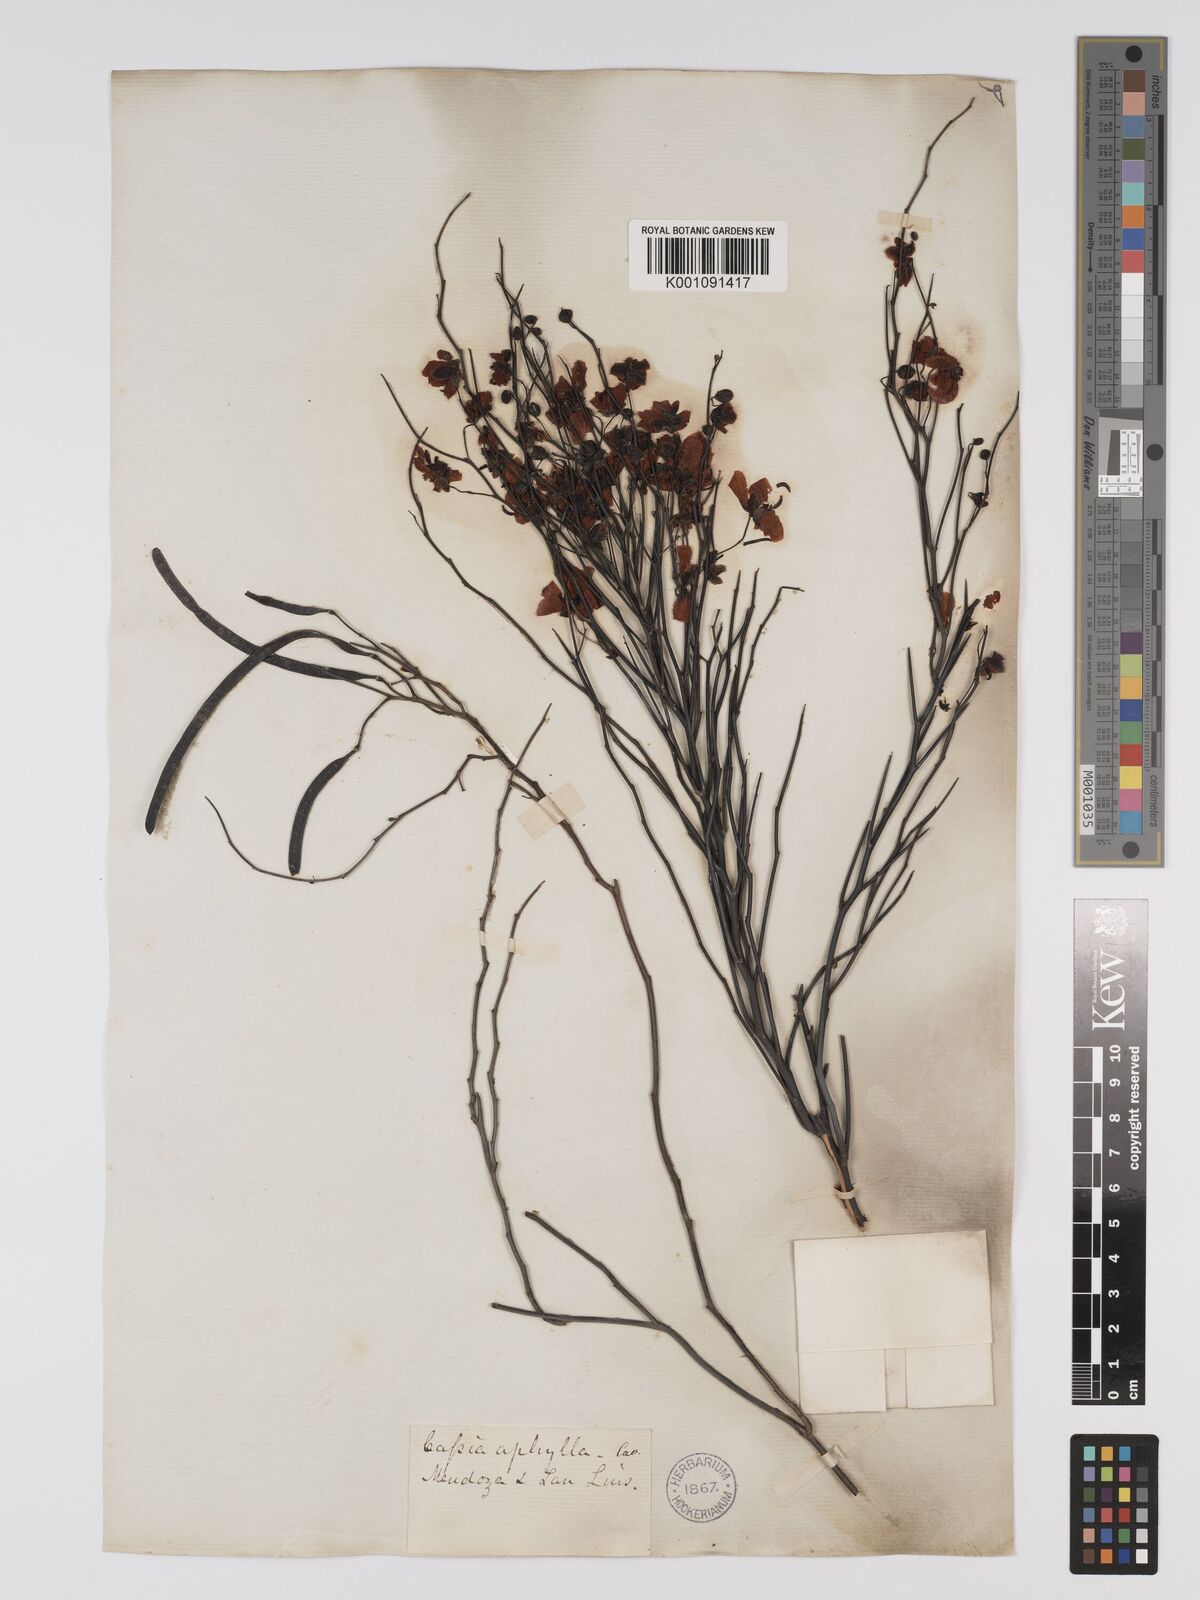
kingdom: Plantae
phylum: Tracheophyta
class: Magnoliopsida
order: Fabales
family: Fabaceae
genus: Senna
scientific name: Senna aphylla
